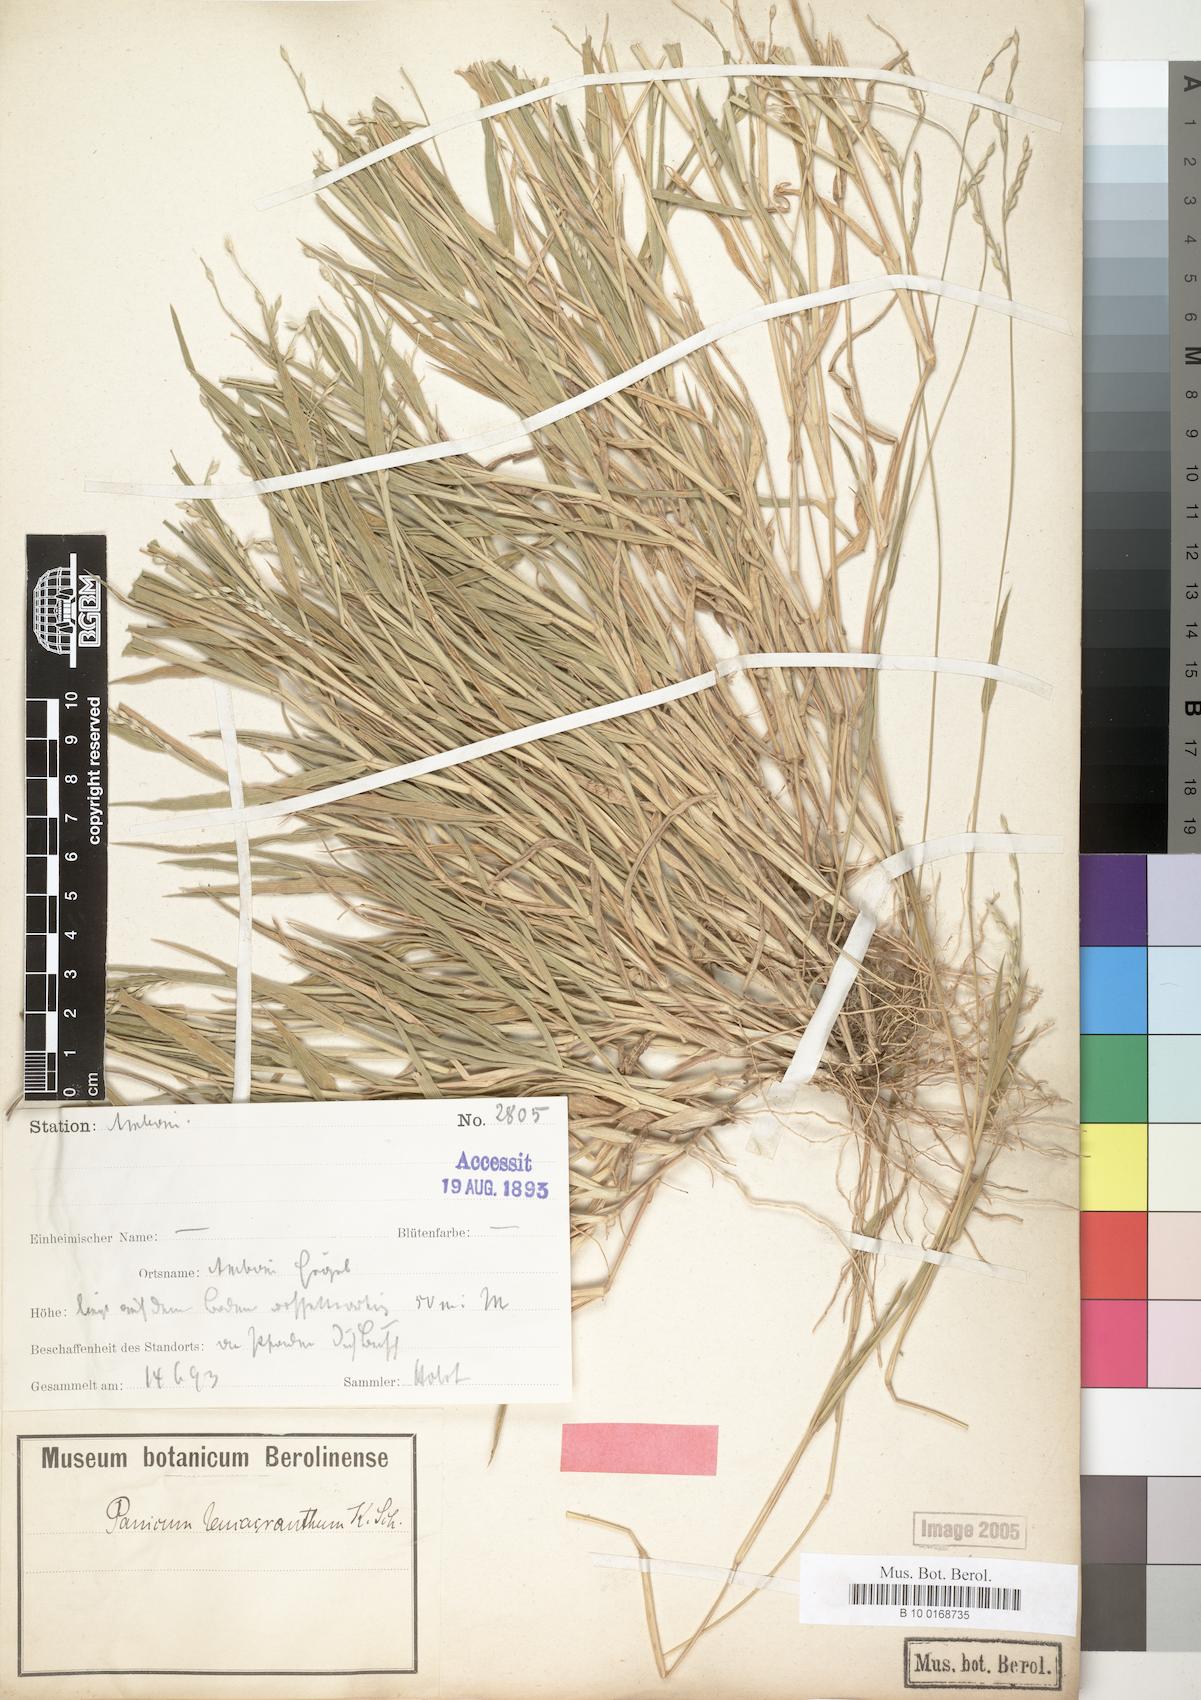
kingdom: Plantae
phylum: Tracheophyta
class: Liliopsida
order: Poales
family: Poaceae
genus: Urochloa
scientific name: Urochloa xantholeuca
